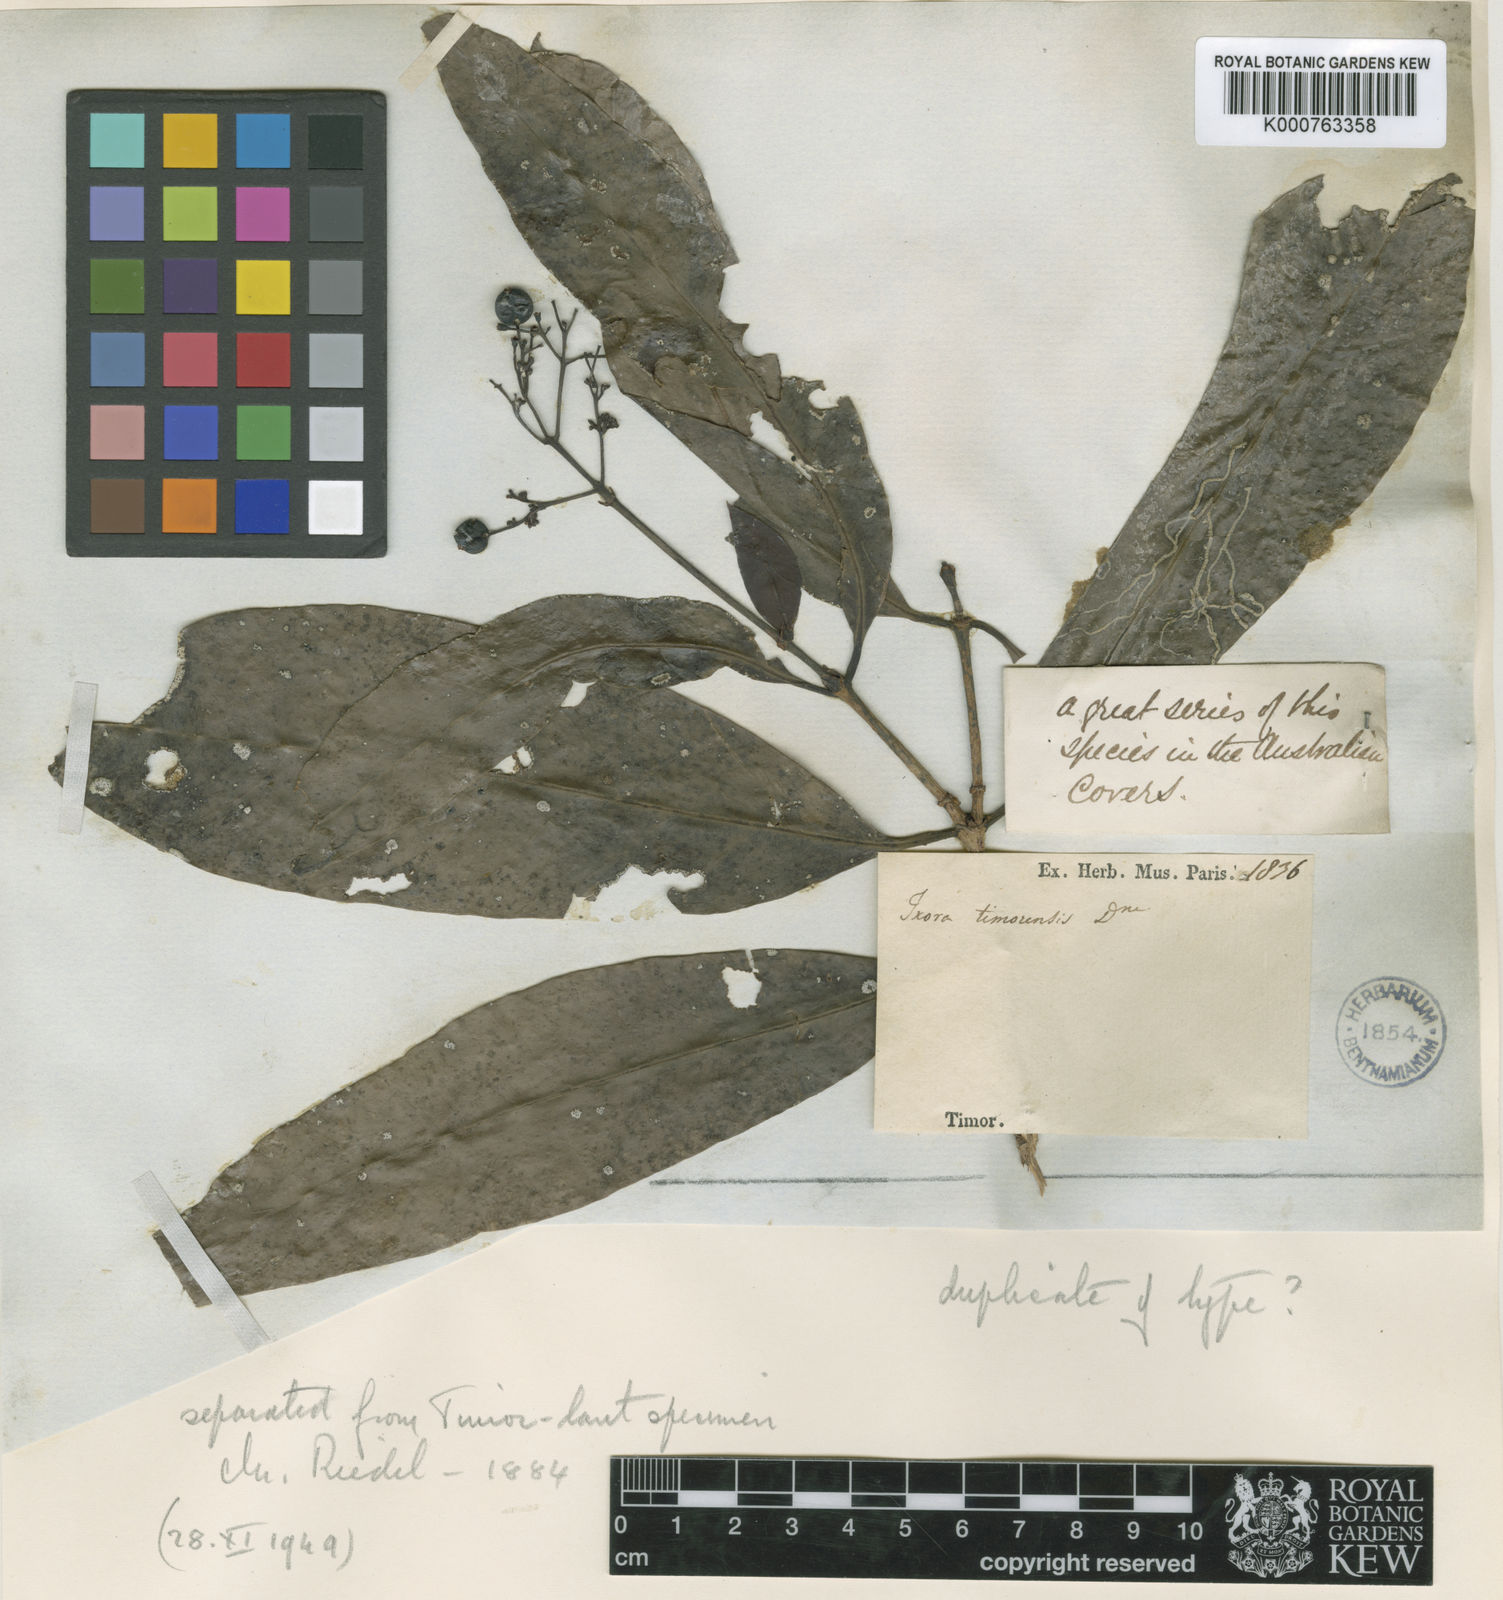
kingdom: Plantae
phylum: Tracheophyta
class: Magnoliopsida
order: Gentianales
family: Rubiaceae
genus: Ixora
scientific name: Ixora timorensis
